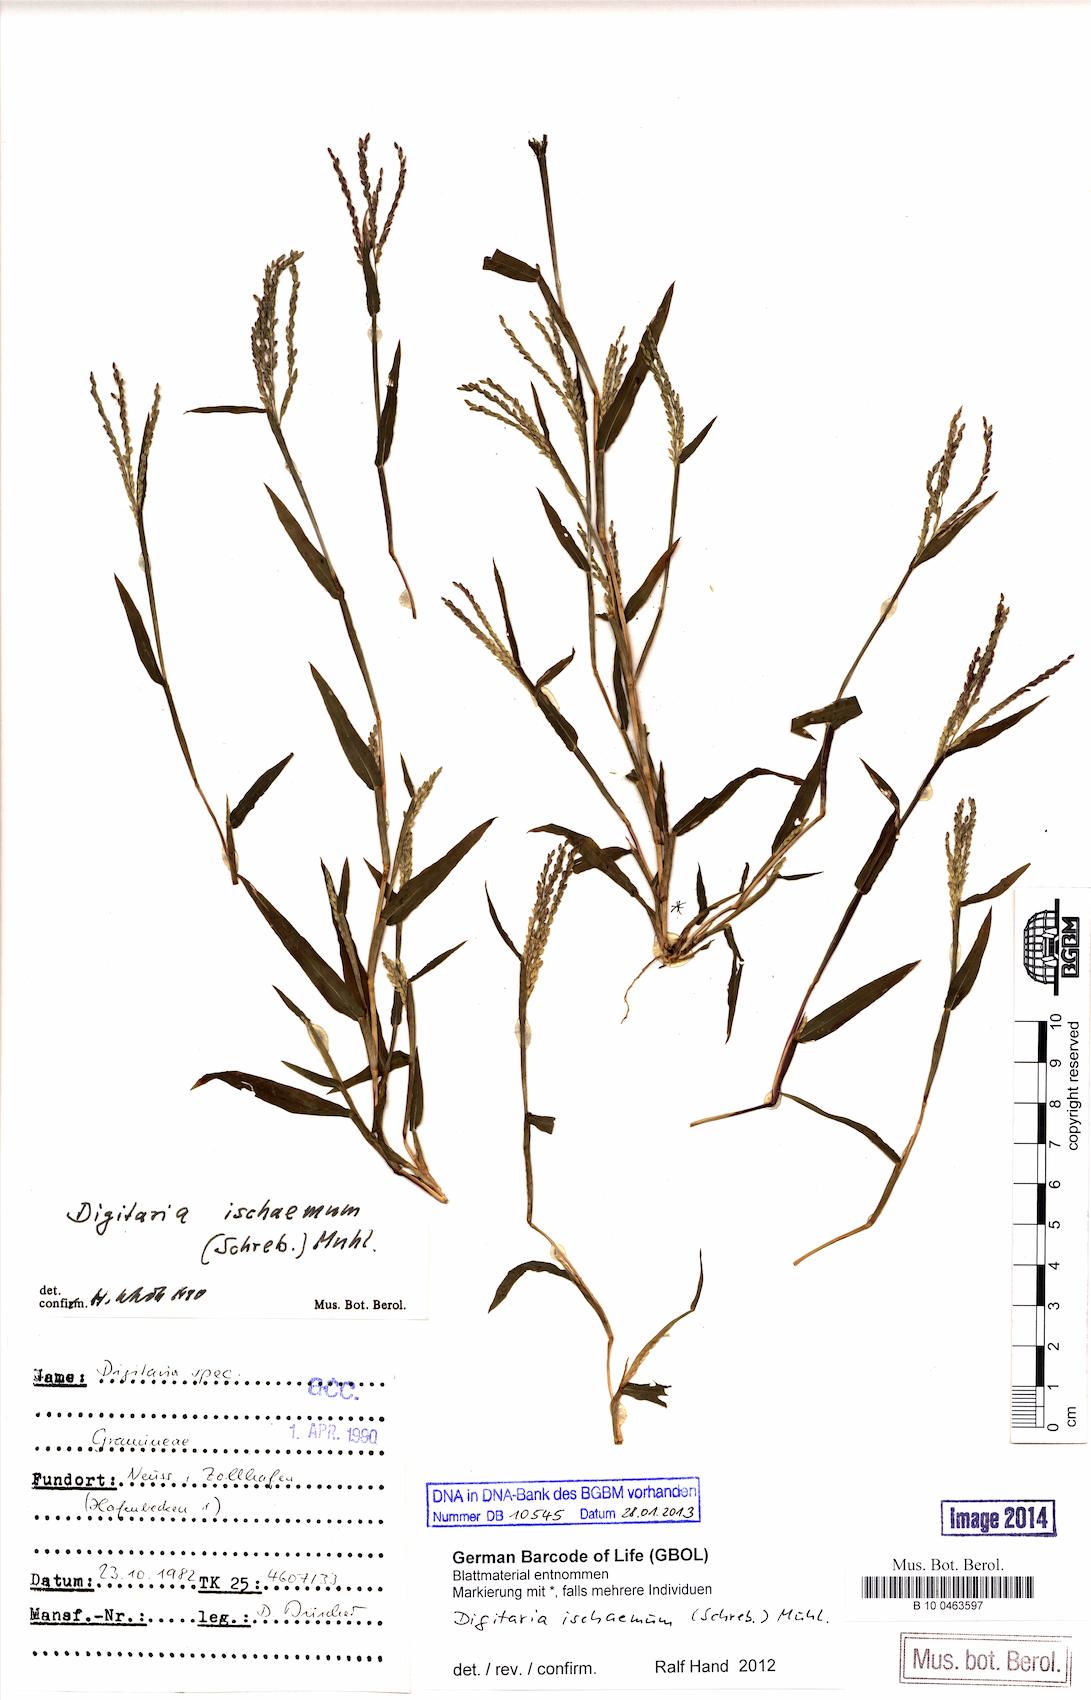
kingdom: Plantae
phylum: Tracheophyta
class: Liliopsida
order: Poales
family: Poaceae
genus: Digitaria
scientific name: Digitaria ischaemum
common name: Smooth crabgrass
